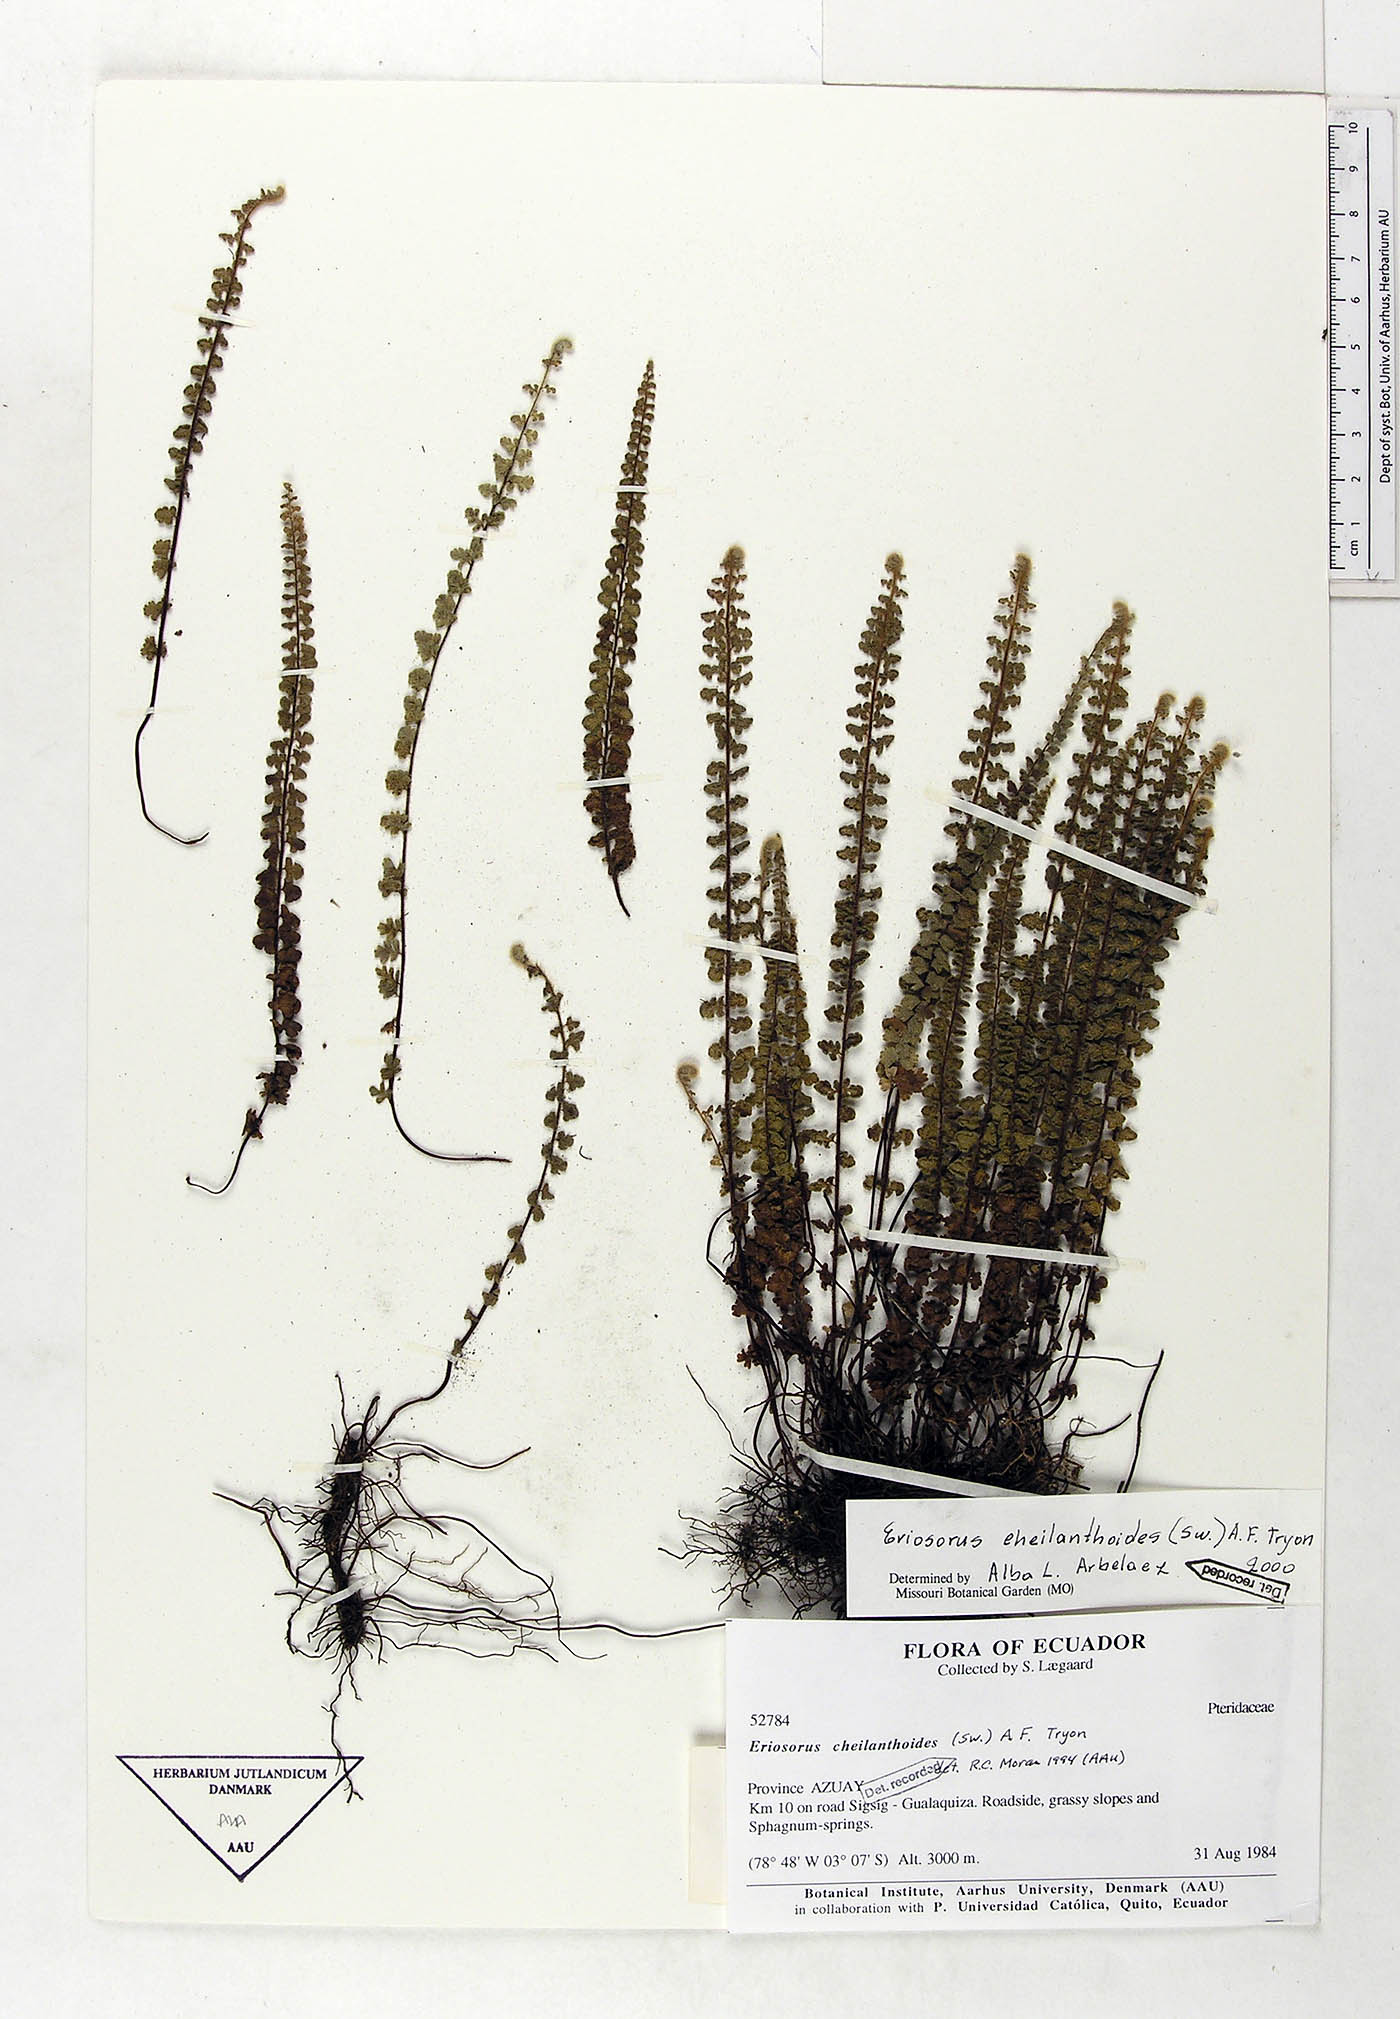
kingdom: Plantae
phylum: Tracheophyta
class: Polypodiopsida
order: Polypodiales
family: Pteridaceae
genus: Jamesonia
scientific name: Jamesonia cheilanthoides
